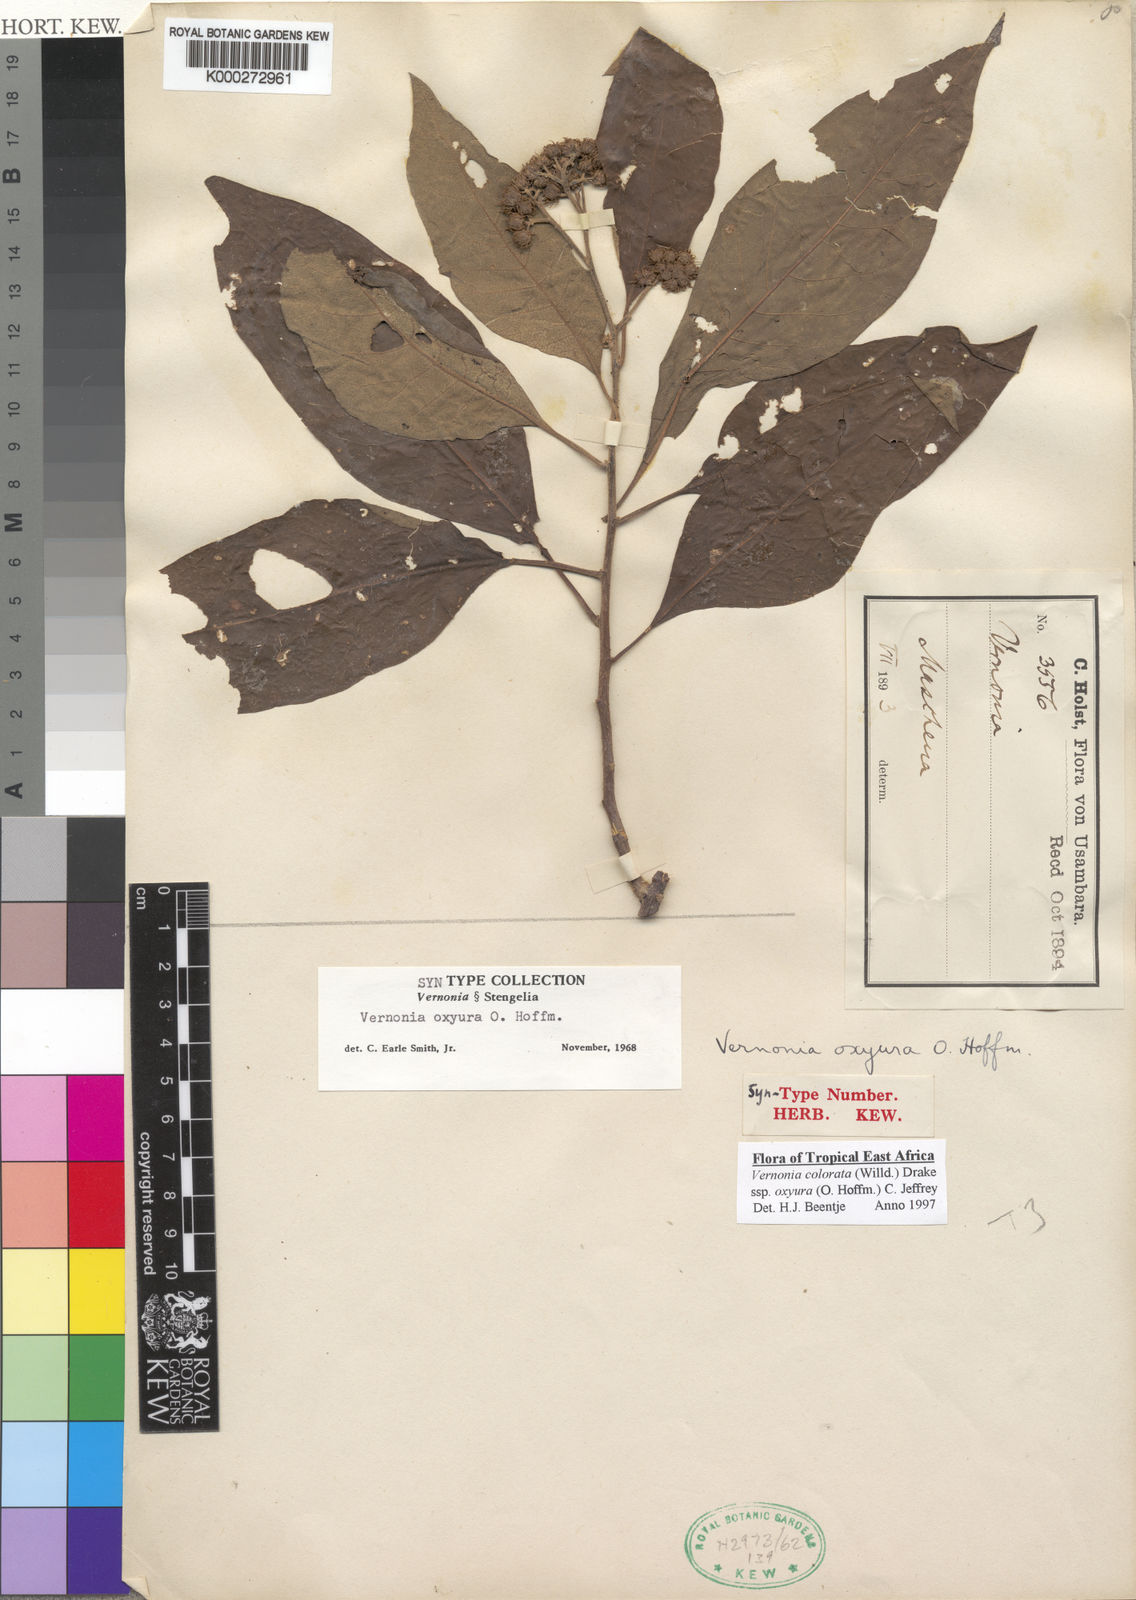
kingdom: Plantae
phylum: Tracheophyta
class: Magnoliopsida
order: Asterales
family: Asteraceae
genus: Vernonia
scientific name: Vernonia colorata
